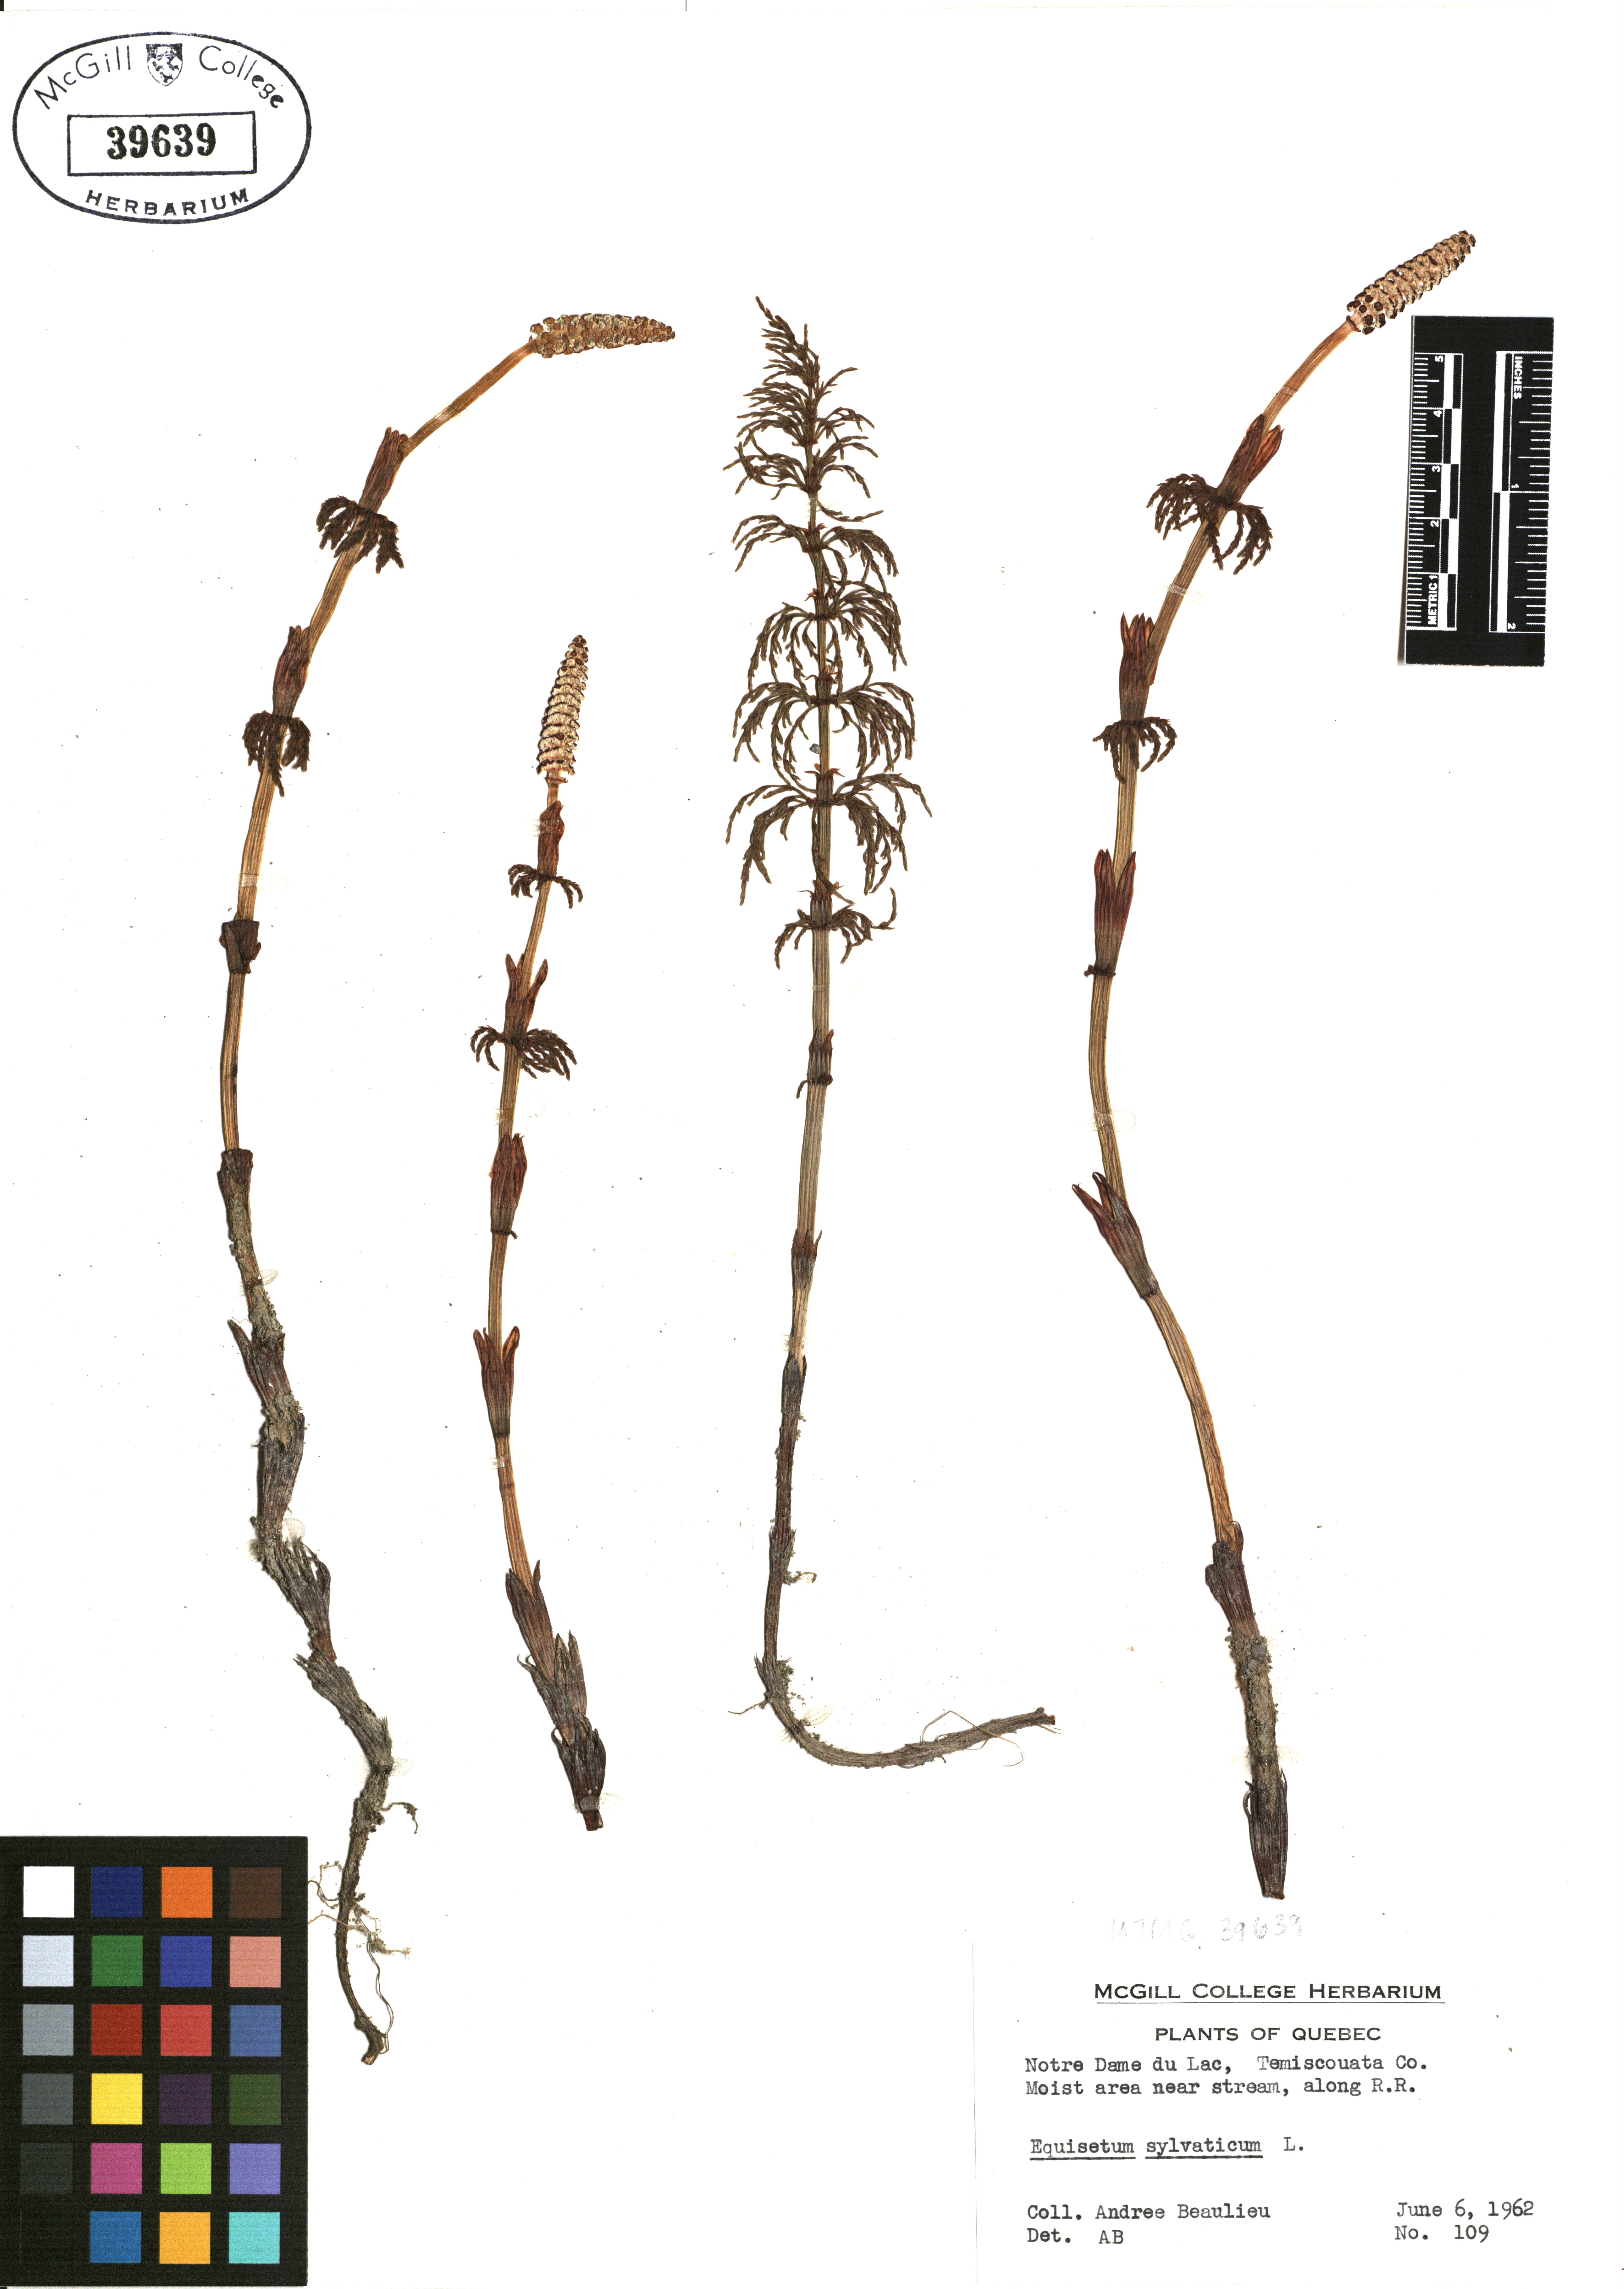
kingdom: Plantae
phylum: Tracheophyta
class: Polypodiopsida
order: Equisetales
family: Equisetaceae
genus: Equisetum
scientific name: Equisetum sylvaticum
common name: Wood horsetail
